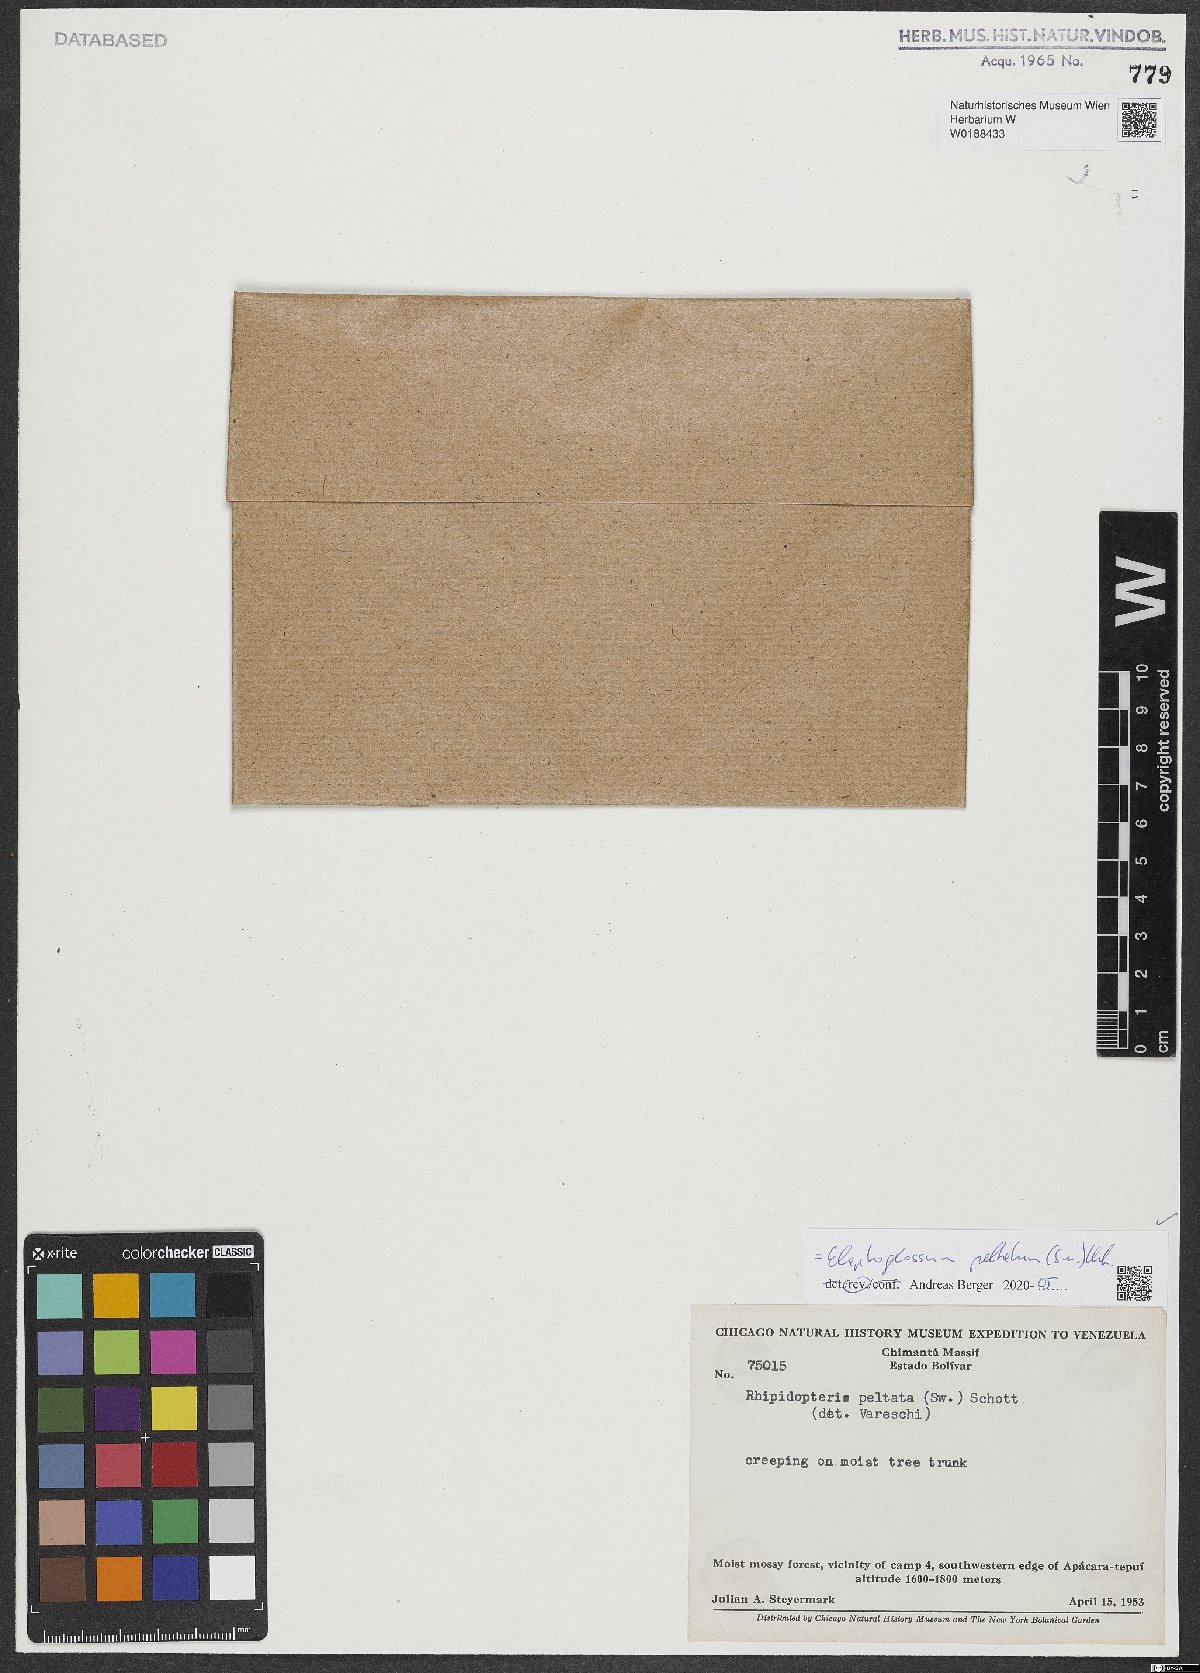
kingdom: Plantae
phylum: Tracheophyta
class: Polypodiopsida
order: Polypodiales
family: Dryopteridaceae
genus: Elaphoglossum
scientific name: Elaphoglossum peltatum
